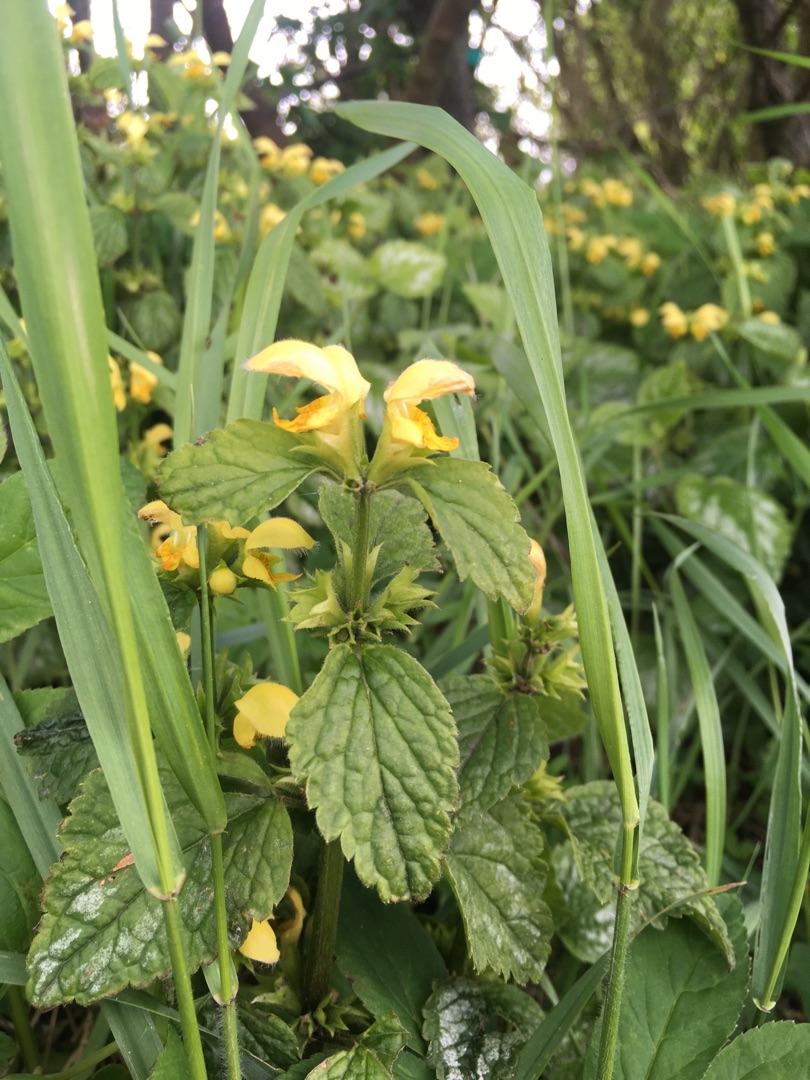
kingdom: Plantae
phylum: Tracheophyta
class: Magnoliopsida
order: Lamiales
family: Lamiaceae
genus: Lamium
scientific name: Lamium galeobdolon
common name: Have-guldnælde
